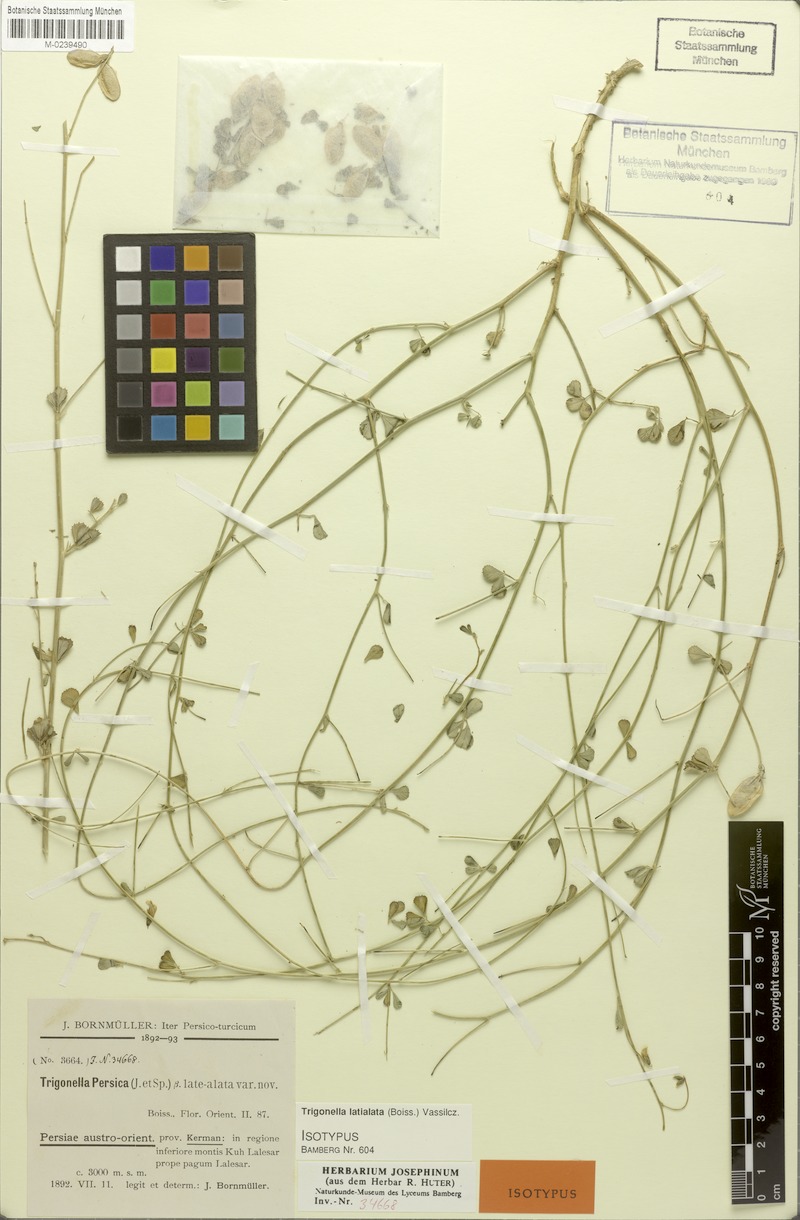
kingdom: Plantae
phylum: Tracheophyta
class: Magnoliopsida
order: Fabales
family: Fabaceae
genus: Trigonella
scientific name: Trigonella late-alata
